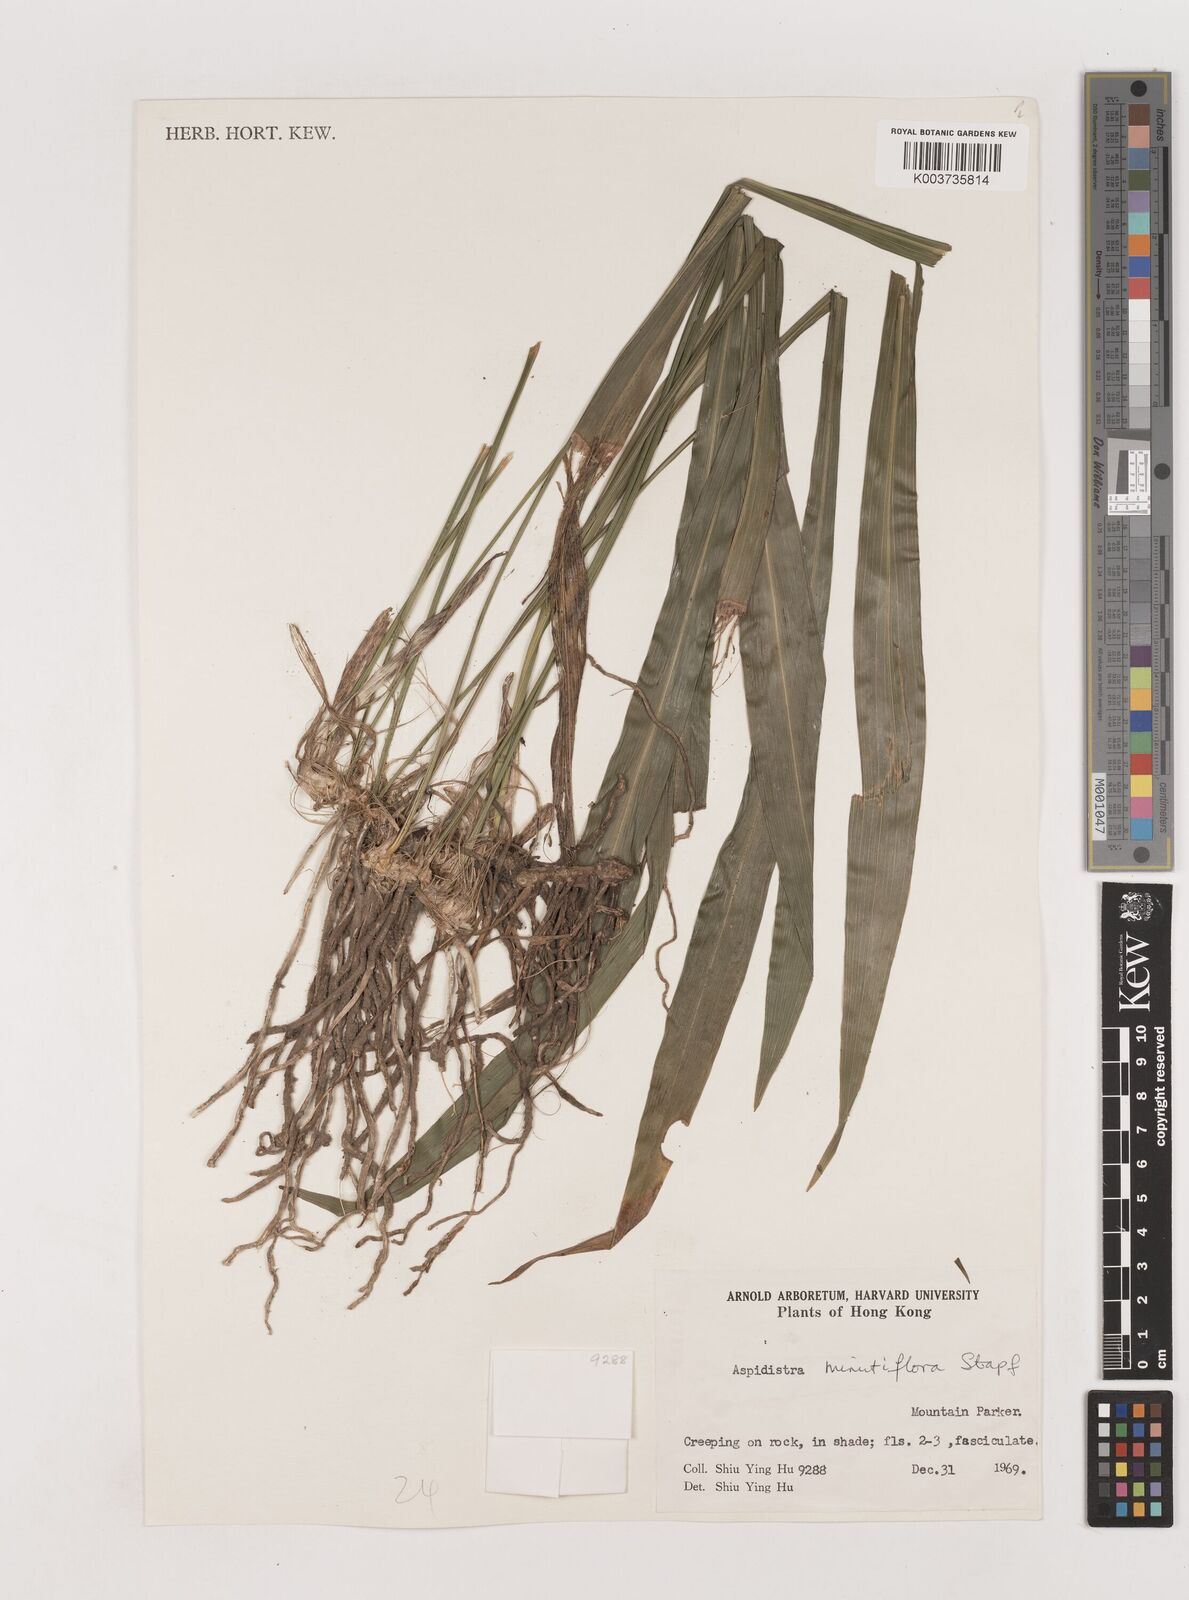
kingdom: Plantae
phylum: Tracheophyta
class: Liliopsida
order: Asparagales
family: Asparagaceae
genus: Aspidistra
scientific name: Aspidistra minutiflora
